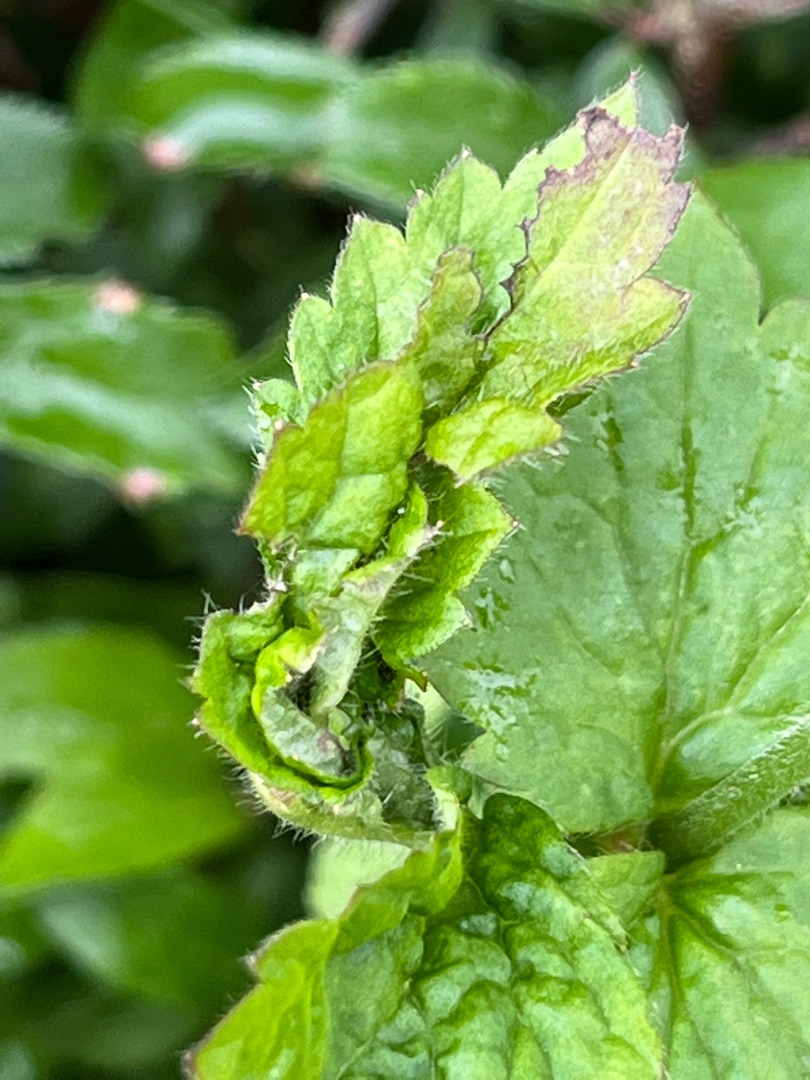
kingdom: Animalia
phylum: Arthropoda
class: Insecta
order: Diptera
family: Cecidomyiidae
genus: Contarinia
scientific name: Contarinia gei
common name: Nellikerodgalmyg
